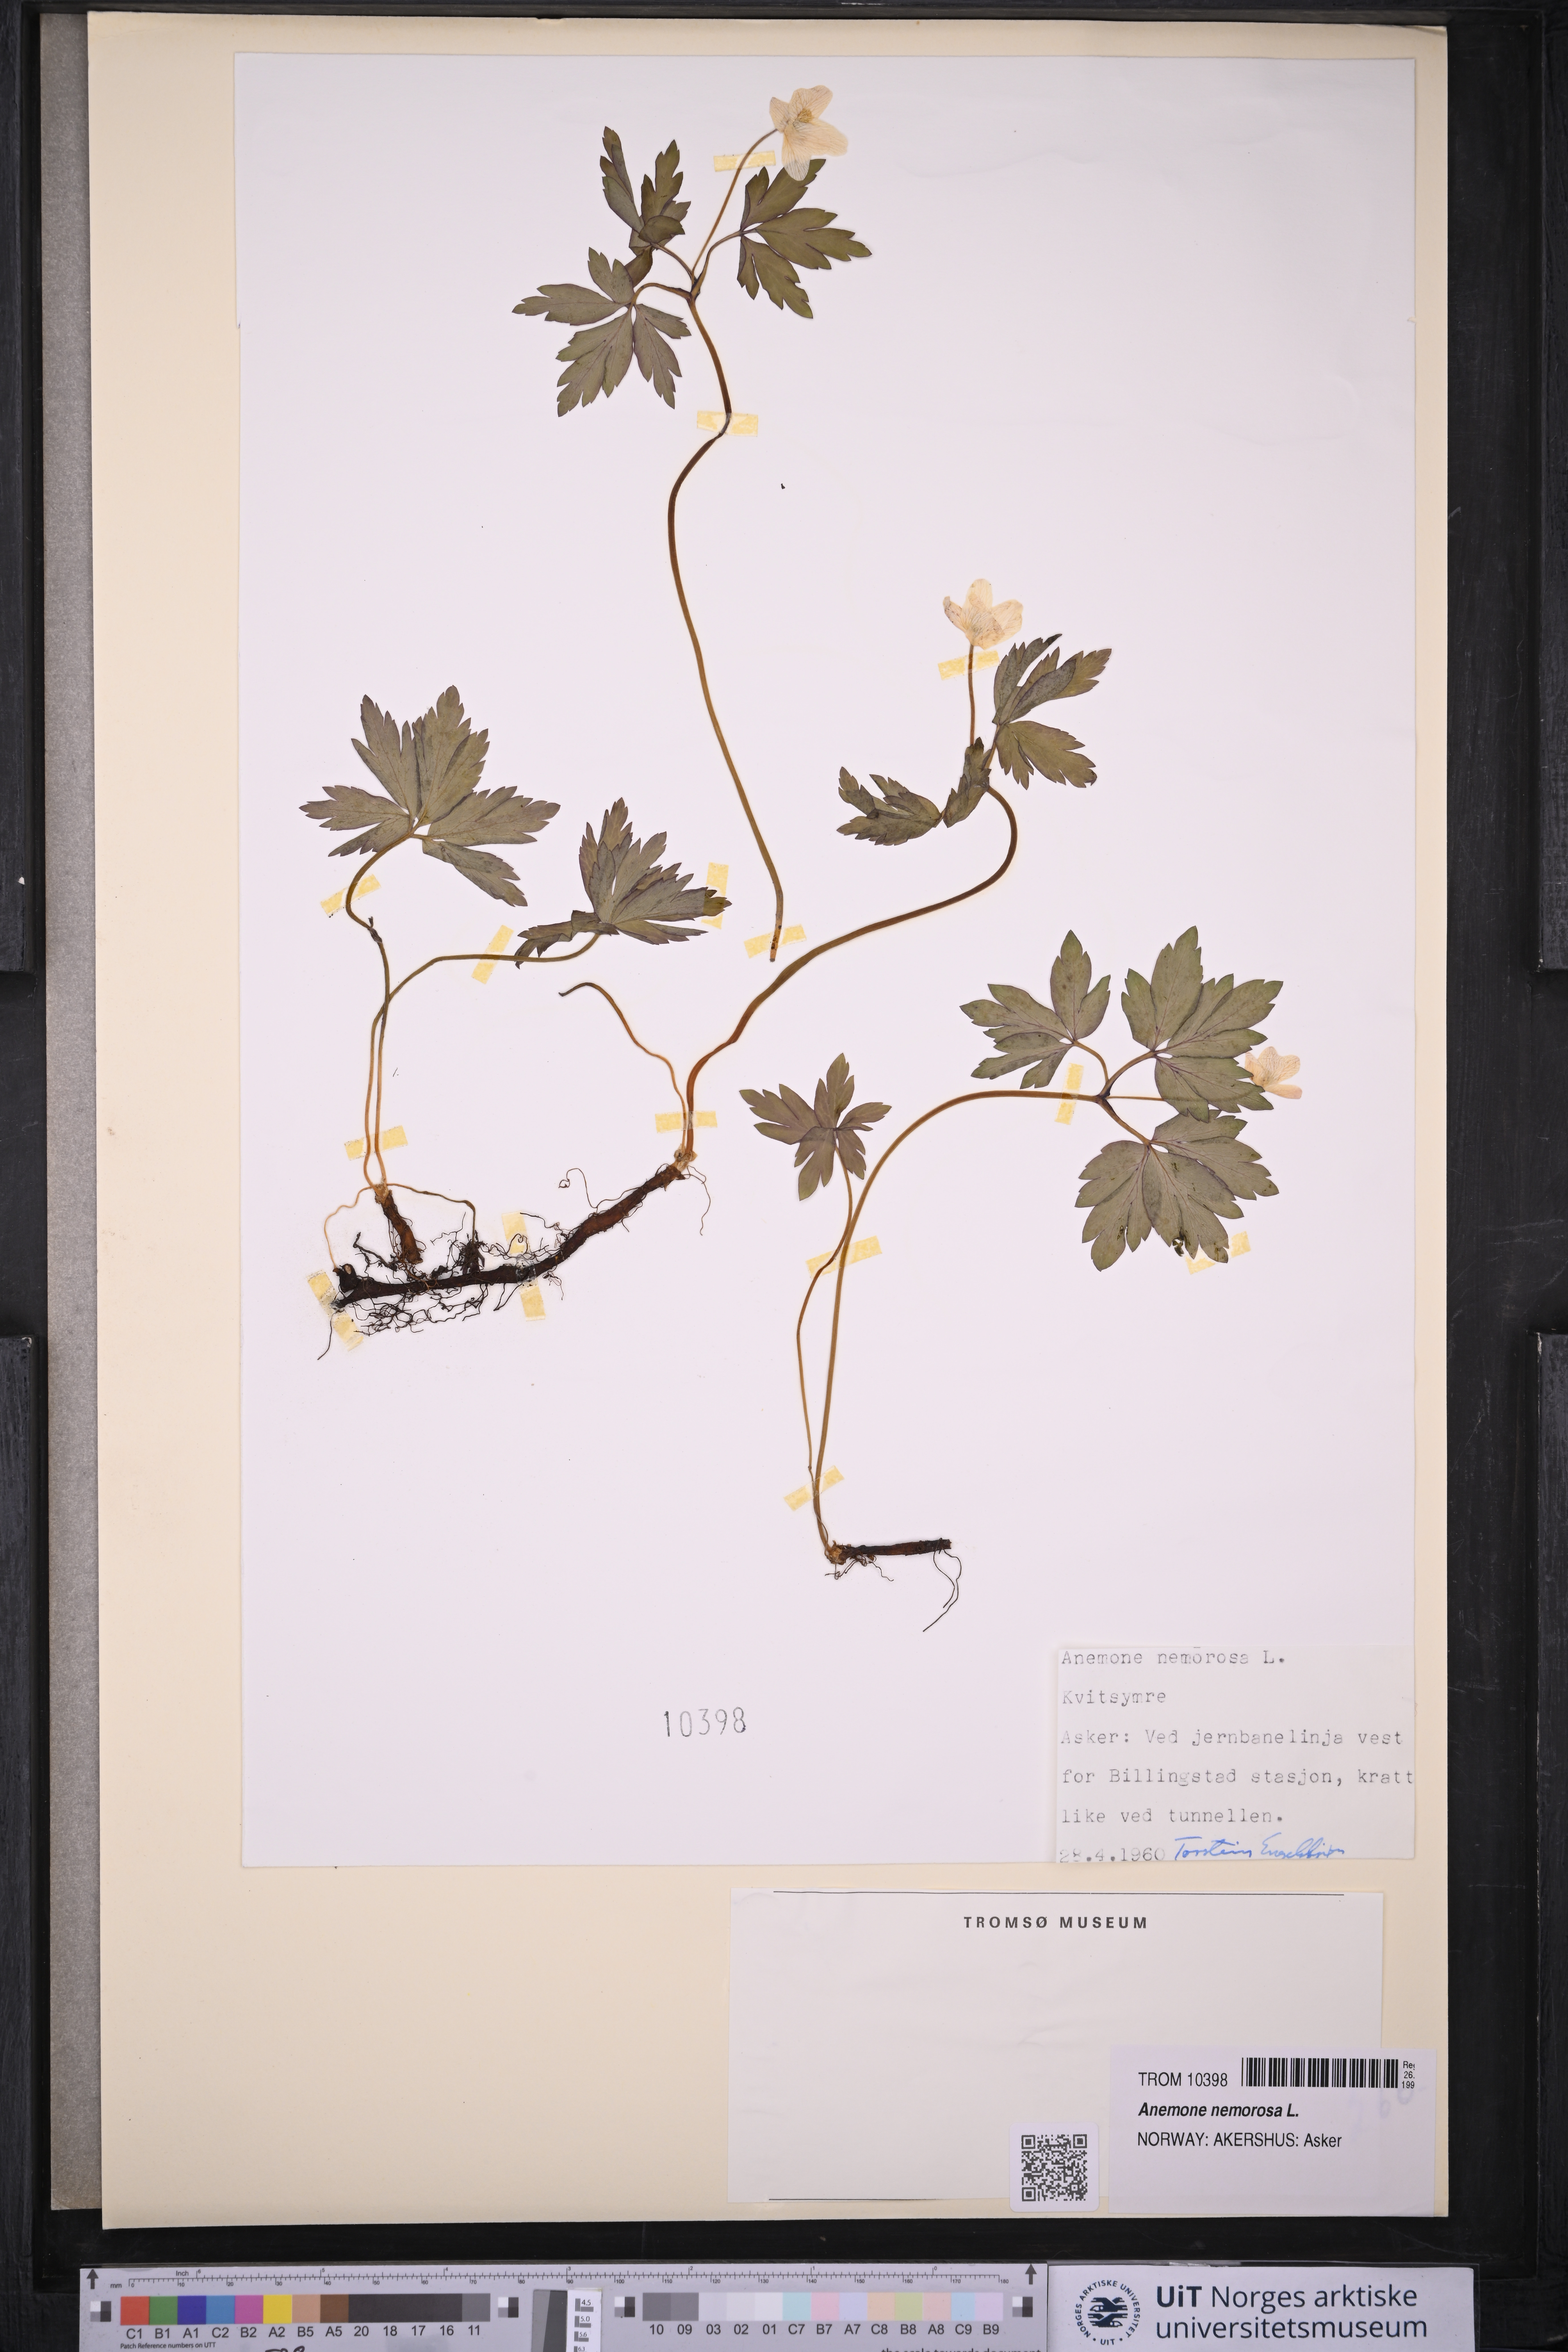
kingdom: Plantae
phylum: Tracheophyta
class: Magnoliopsida
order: Ranunculales
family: Ranunculaceae
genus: Anemone
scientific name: Anemone nemorosa
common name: Wood anemone
